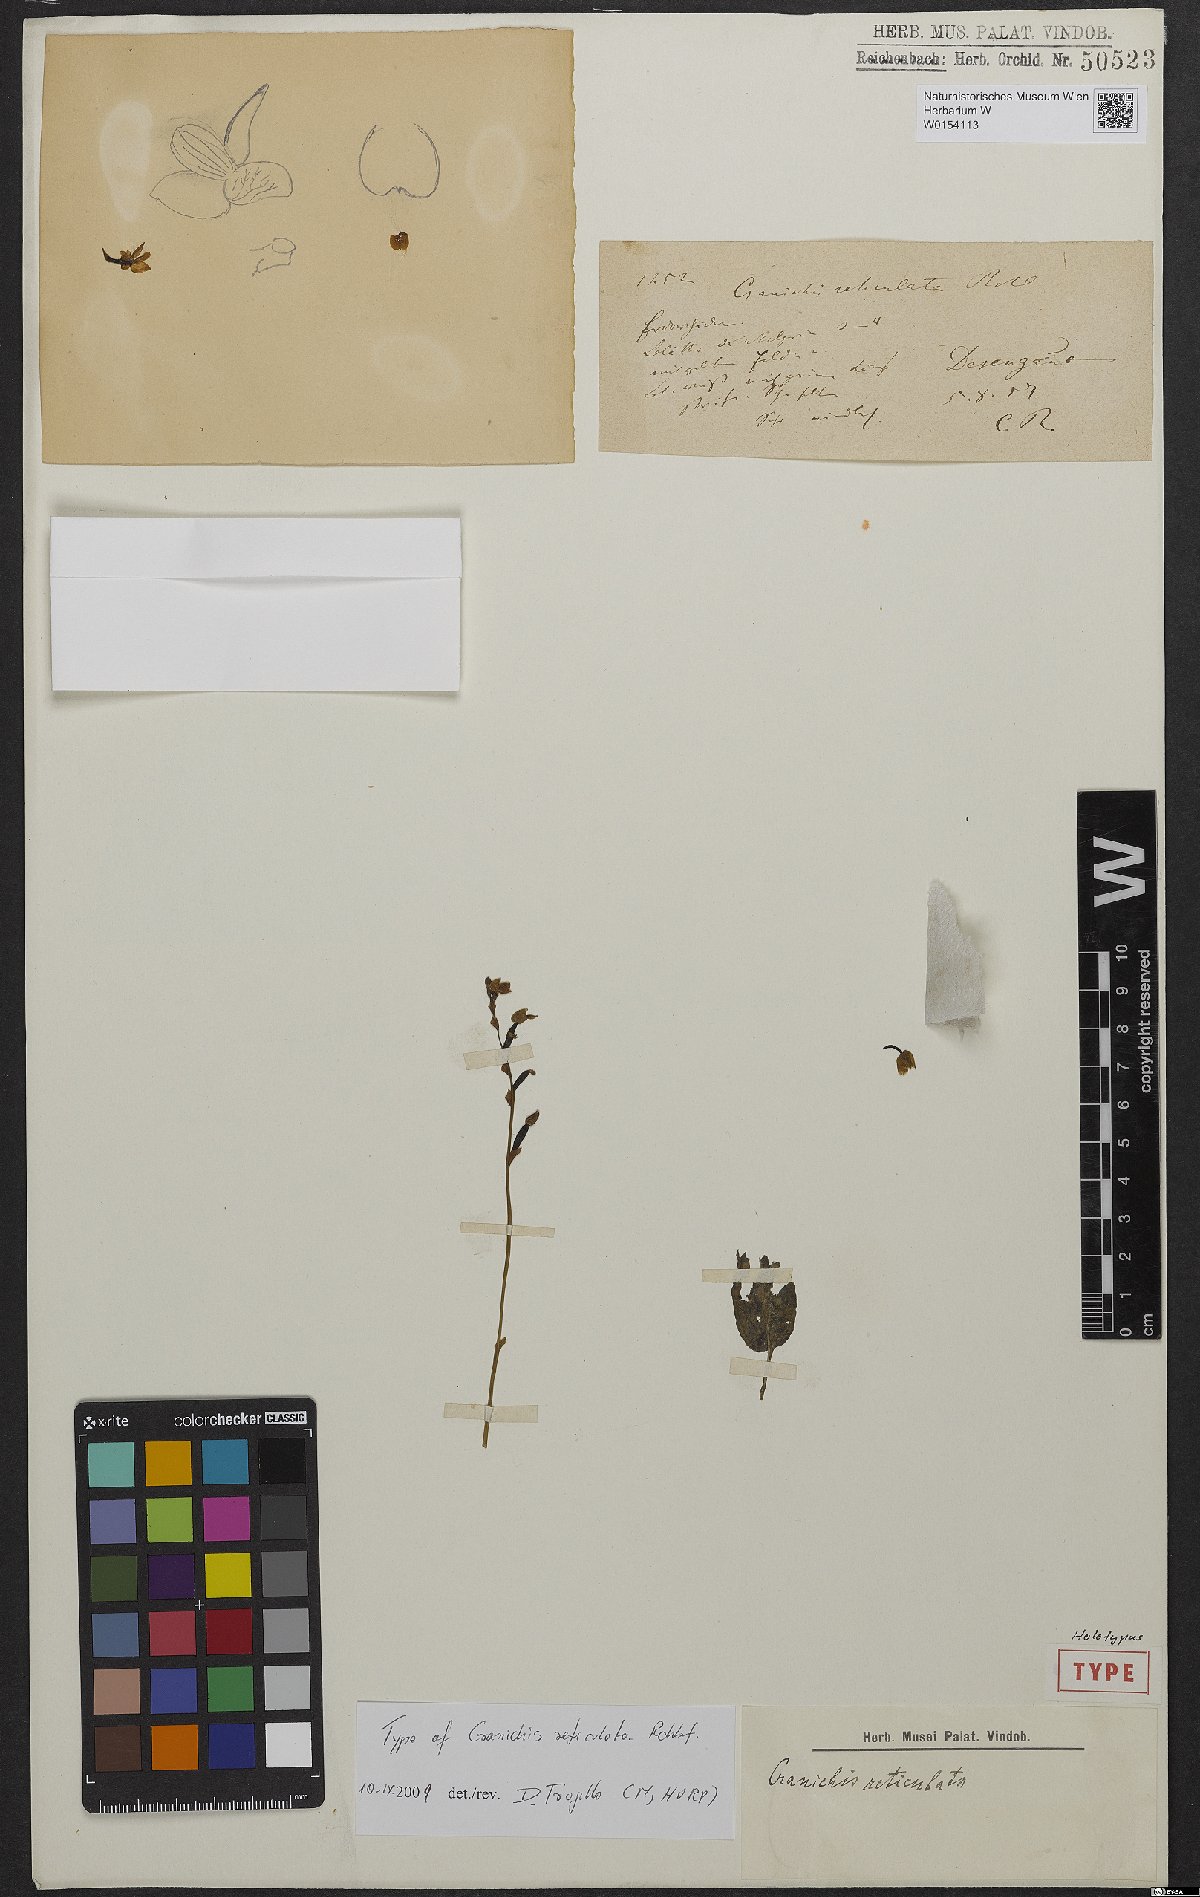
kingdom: Plantae
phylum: Tracheophyta
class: Liliopsida
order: Asparagales
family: Orchidaceae
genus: Cranichis
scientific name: Cranichis reticulata
